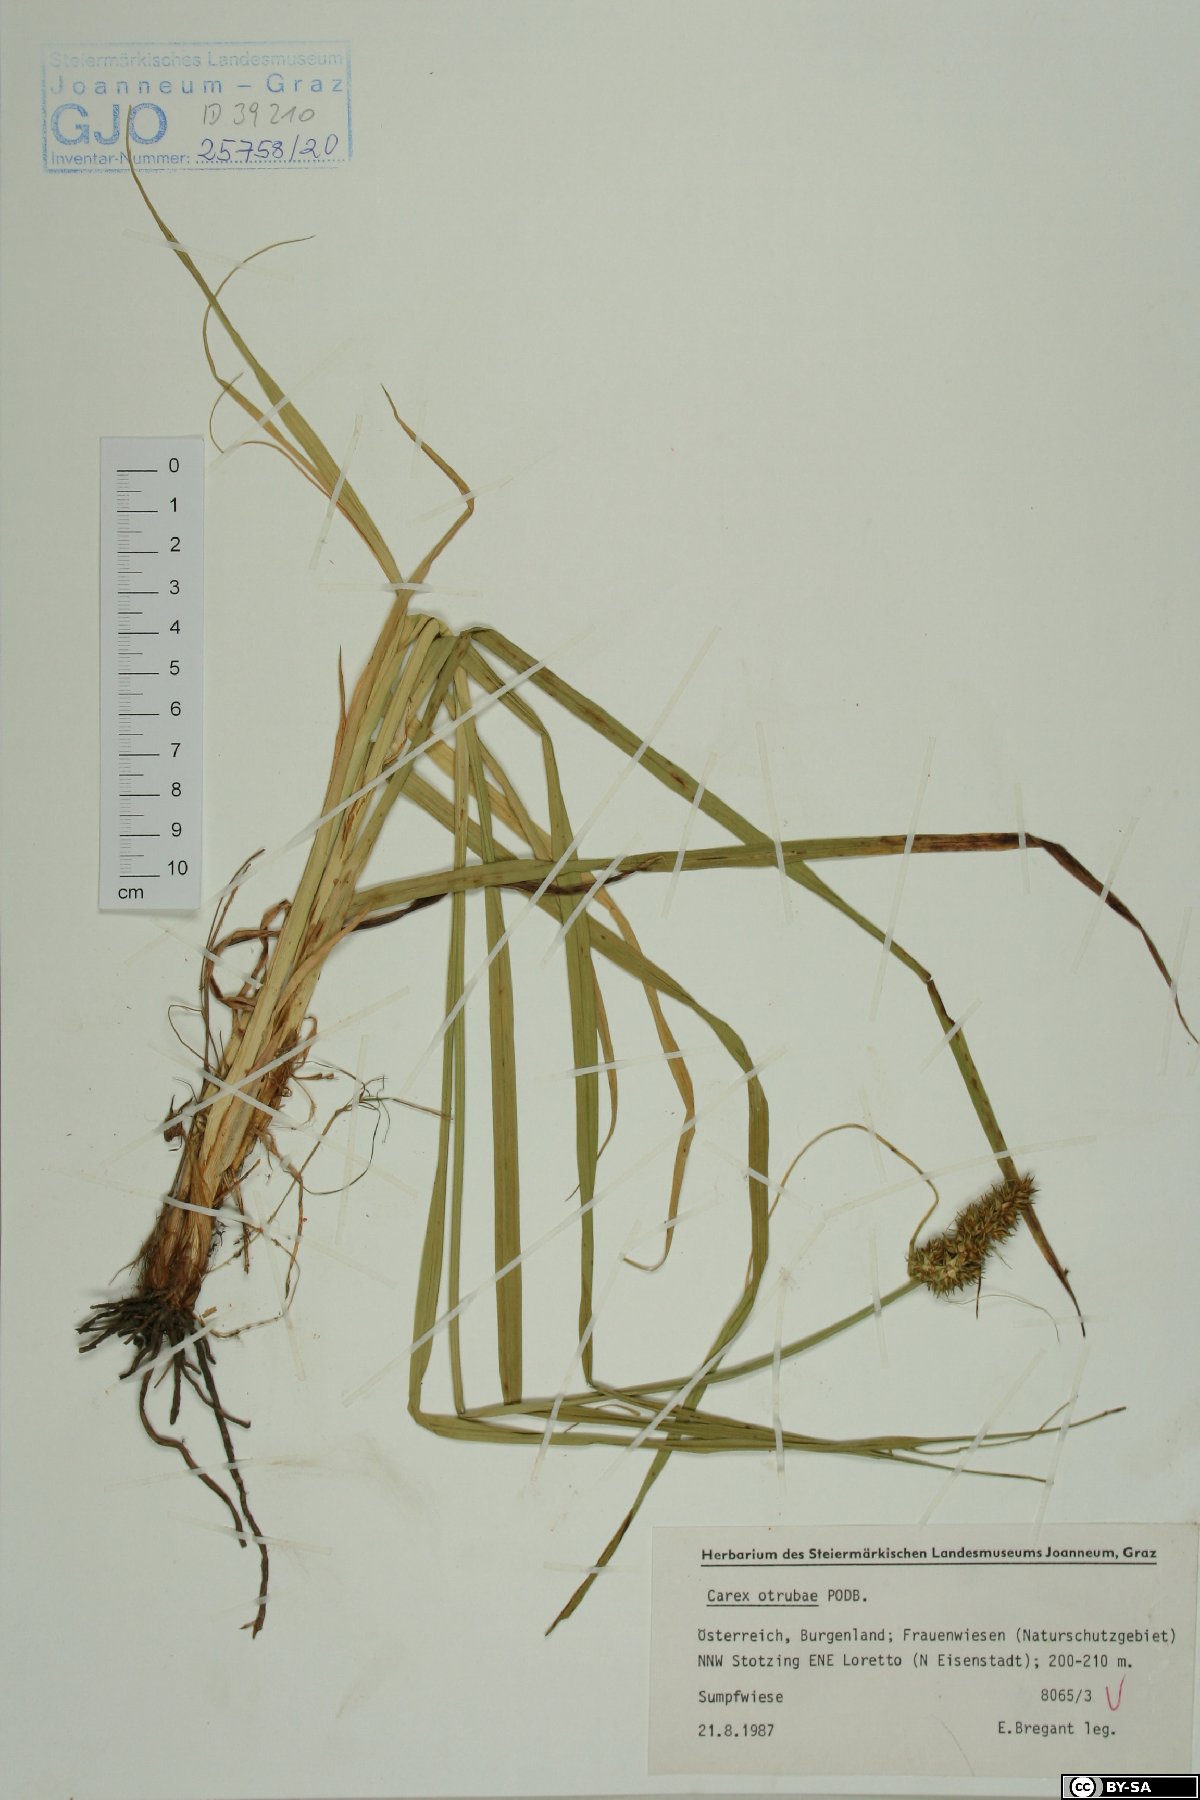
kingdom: Plantae
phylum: Tracheophyta
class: Liliopsida
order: Poales
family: Cyperaceae
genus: Carex
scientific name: Carex otrubae
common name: False fox-sedge
